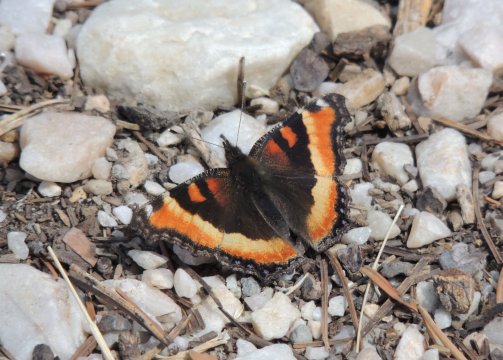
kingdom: Animalia
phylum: Arthropoda
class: Insecta
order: Lepidoptera
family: Nymphalidae
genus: Aglais
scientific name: Aglais milberti
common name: Milbert's Tortoiseshell
